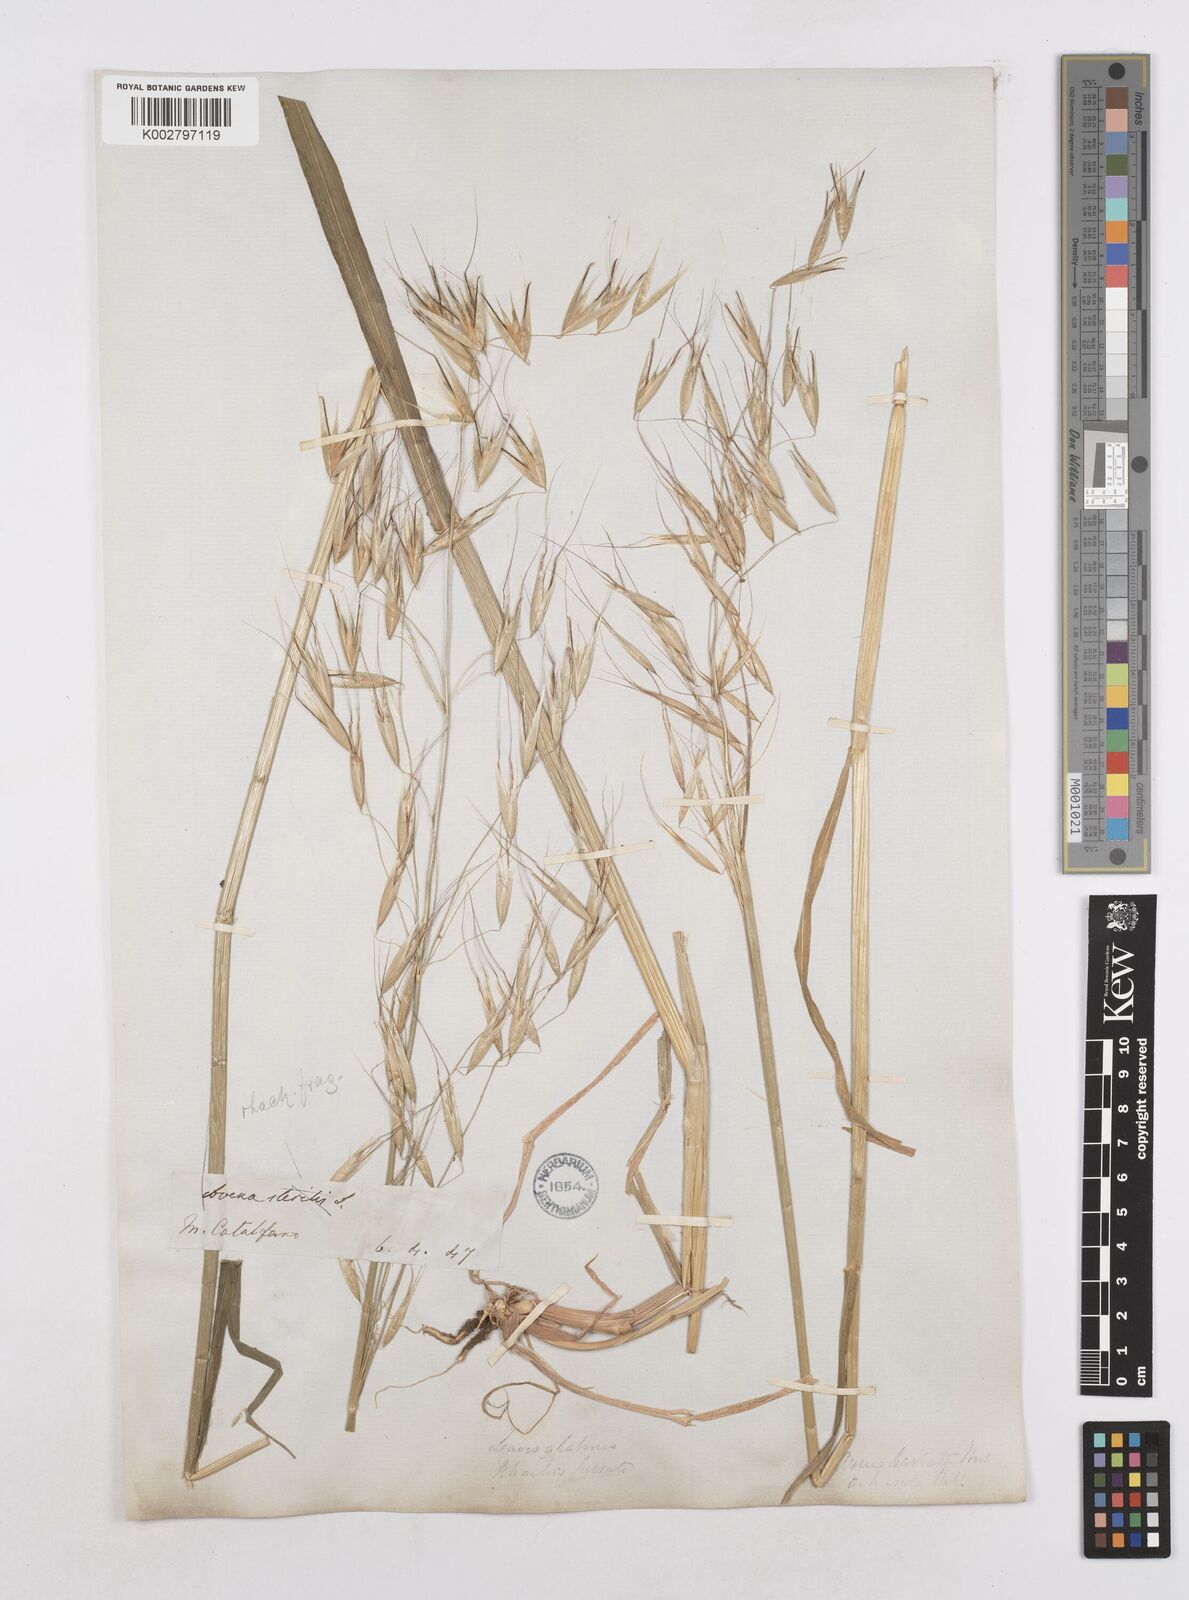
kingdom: Plantae
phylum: Tracheophyta
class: Liliopsida
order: Poales
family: Poaceae
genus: Avena
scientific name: Avena
